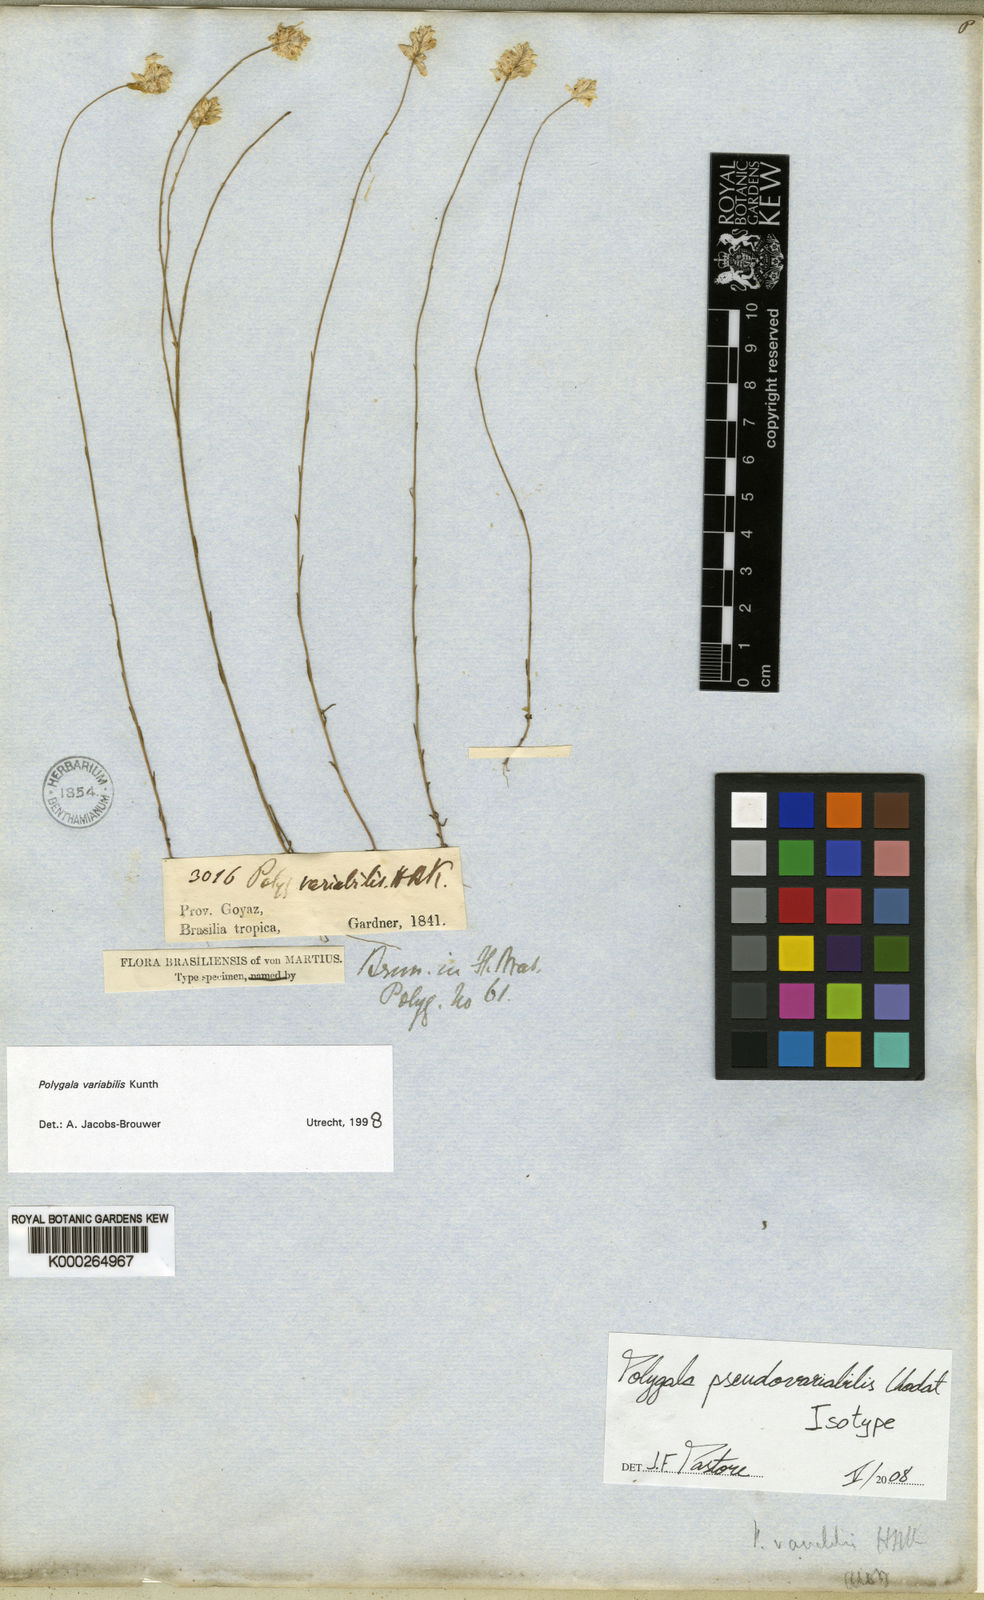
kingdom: Plantae
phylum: Tracheophyta
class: Magnoliopsida
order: Fabales
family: Polygalaceae
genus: Polygala
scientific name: Polygala pseudovariabilis
